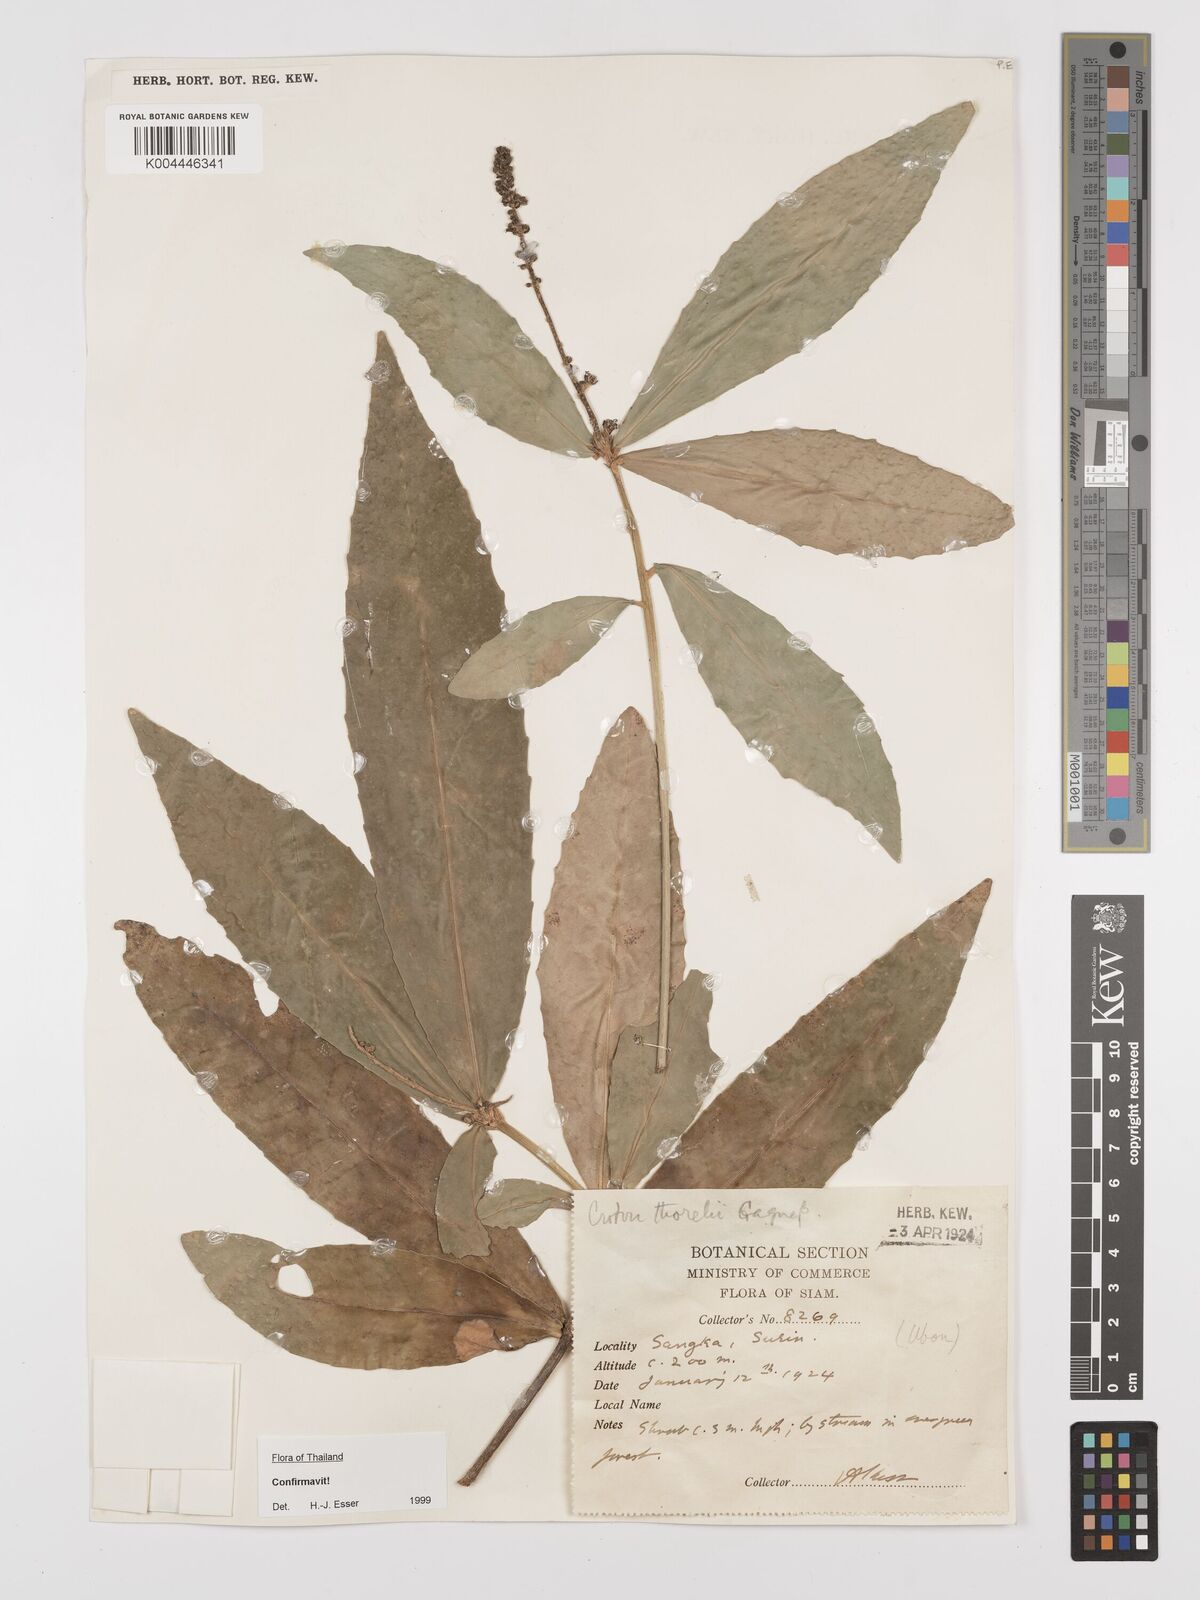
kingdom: Plantae
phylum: Tracheophyta
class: Magnoliopsida
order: Malpighiales
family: Euphorbiaceae
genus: Croton
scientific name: Croton thorelii
